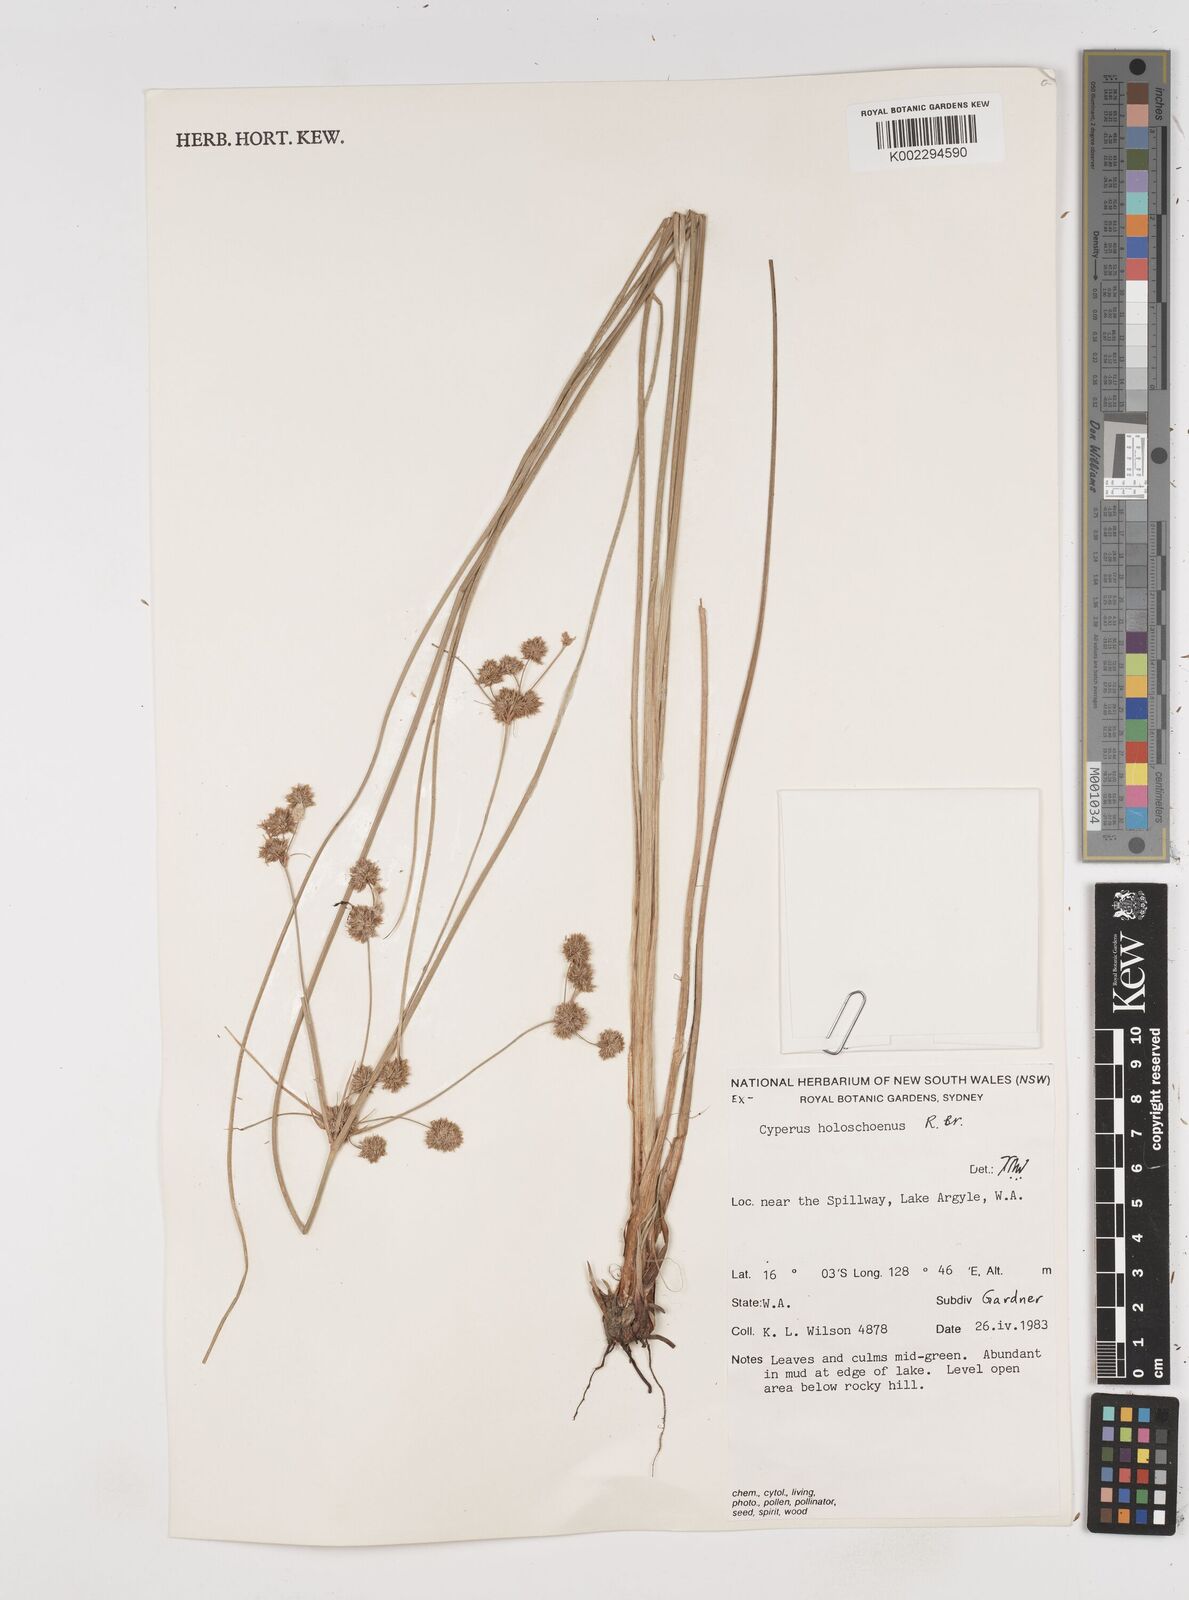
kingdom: Plantae
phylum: Tracheophyta
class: Liliopsida
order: Poales
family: Cyperaceae
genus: Cyperus
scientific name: Cyperus holoschoenus
